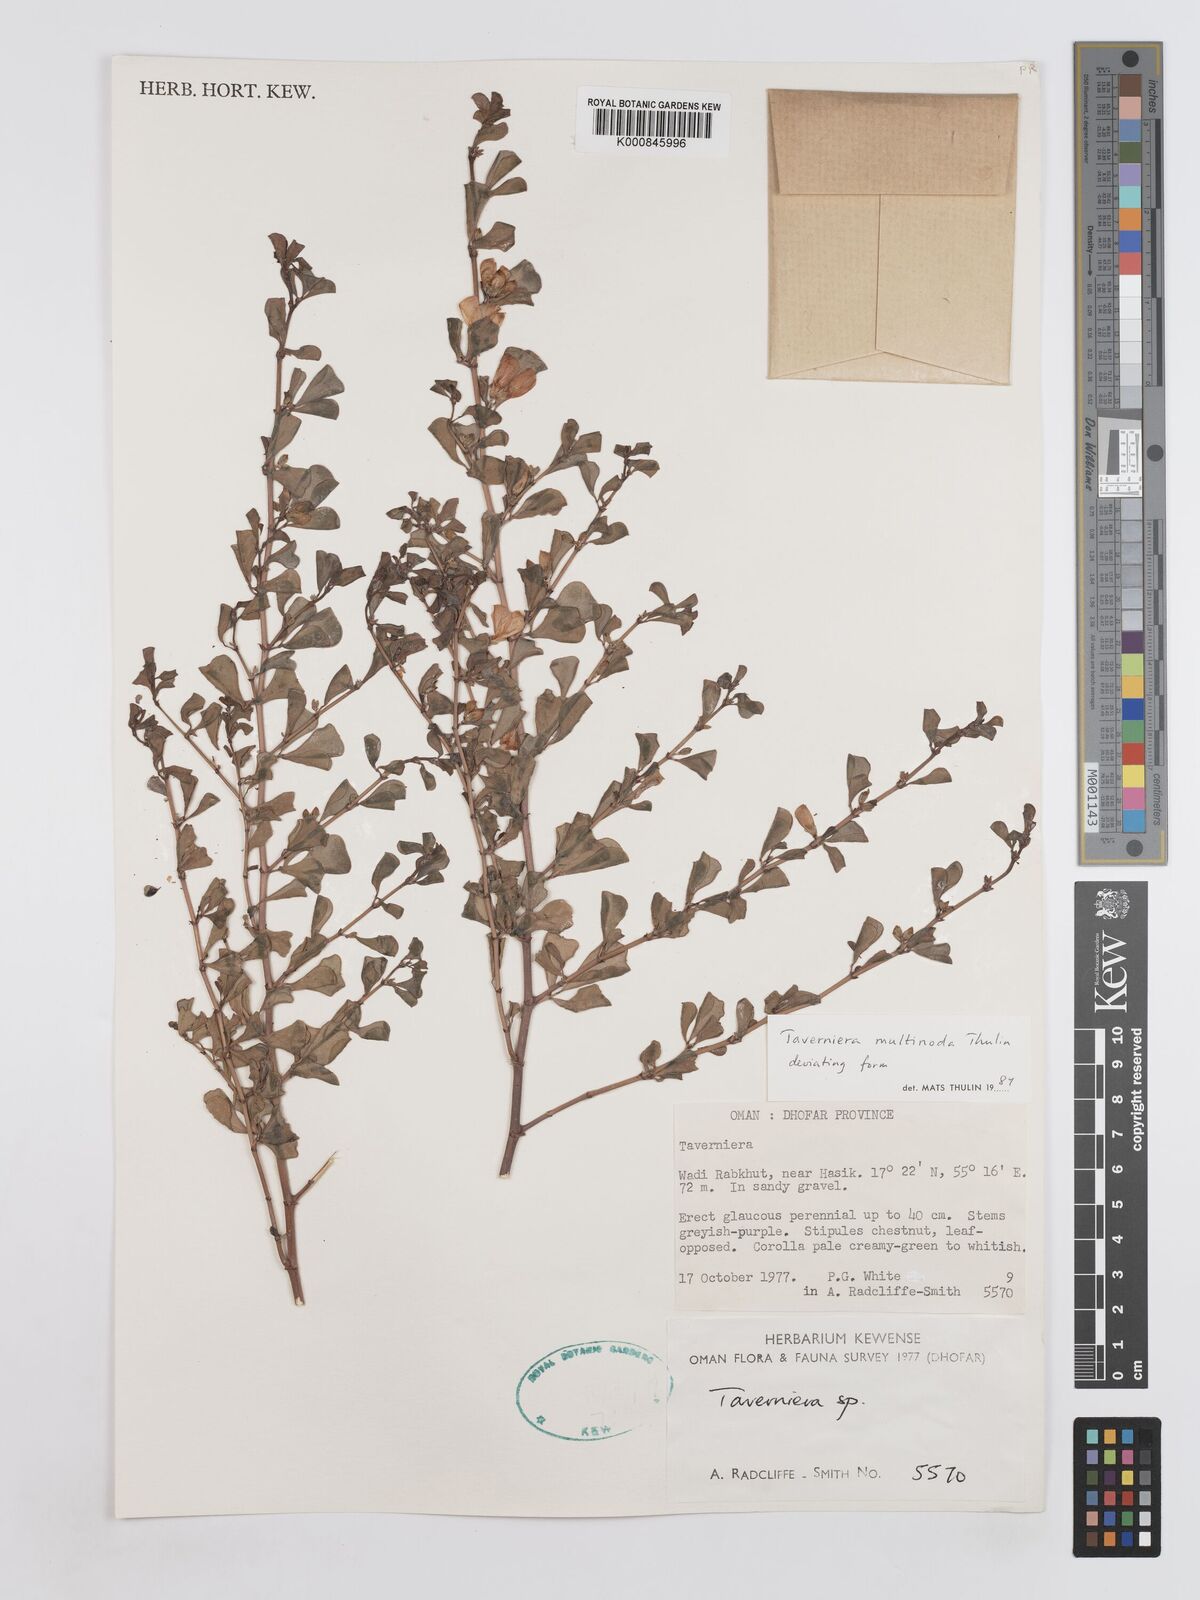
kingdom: Plantae
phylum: Tracheophyta
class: Magnoliopsida
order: Fabales
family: Fabaceae
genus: Taverniera
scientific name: Taverniera multinoda
